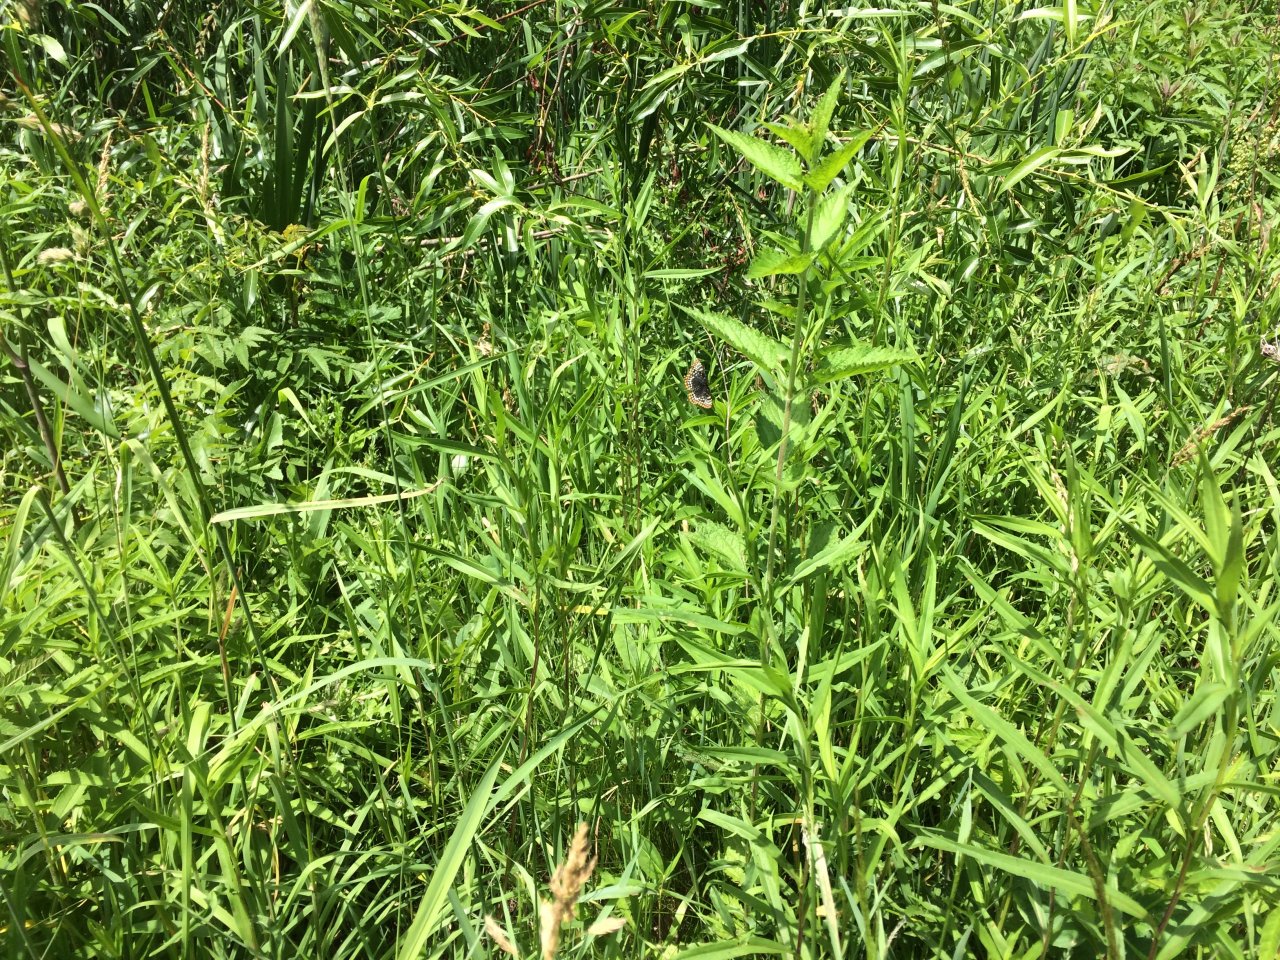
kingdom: Animalia
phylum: Arthropoda
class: Insecta
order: Lepidoptera
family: Nymphalidae
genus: Euphydryas
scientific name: Euphydryas phaeton
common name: Baltimore Checkerspot
